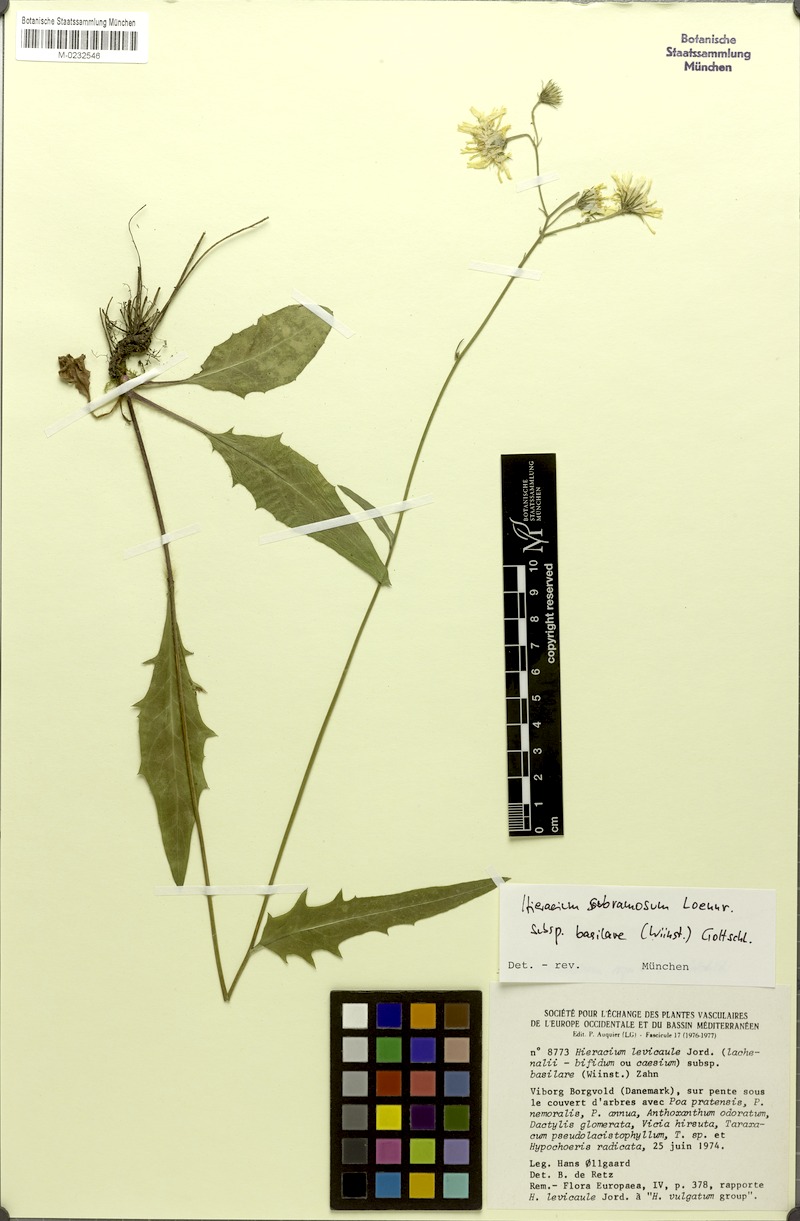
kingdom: Plantae
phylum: Tracheophyta
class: Magnoliopsida
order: Asterales
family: Asteraceae
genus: Hieracium
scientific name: Hieracium subramosum
